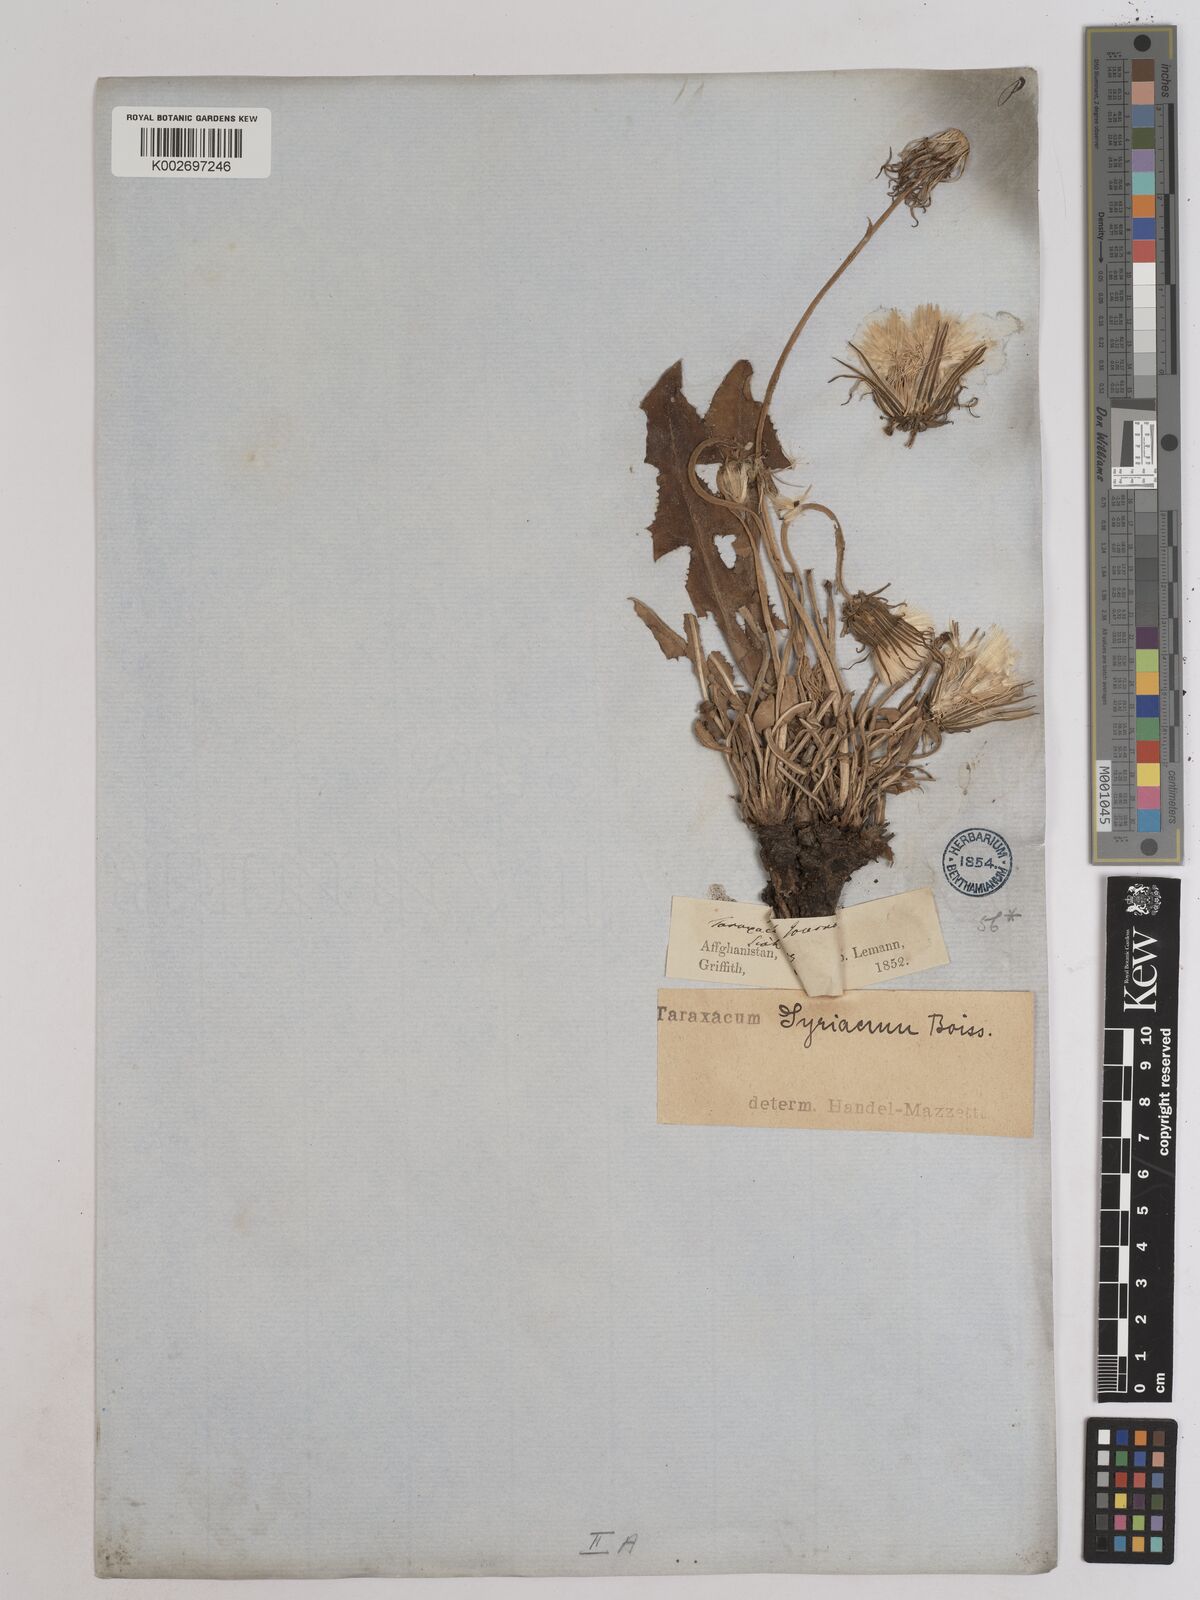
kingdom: Plantae
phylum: Tracheophyta
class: Magnoliopsida
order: Asterales
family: Asteraceae
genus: Taraxacum
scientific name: Taraxacum syriacum
